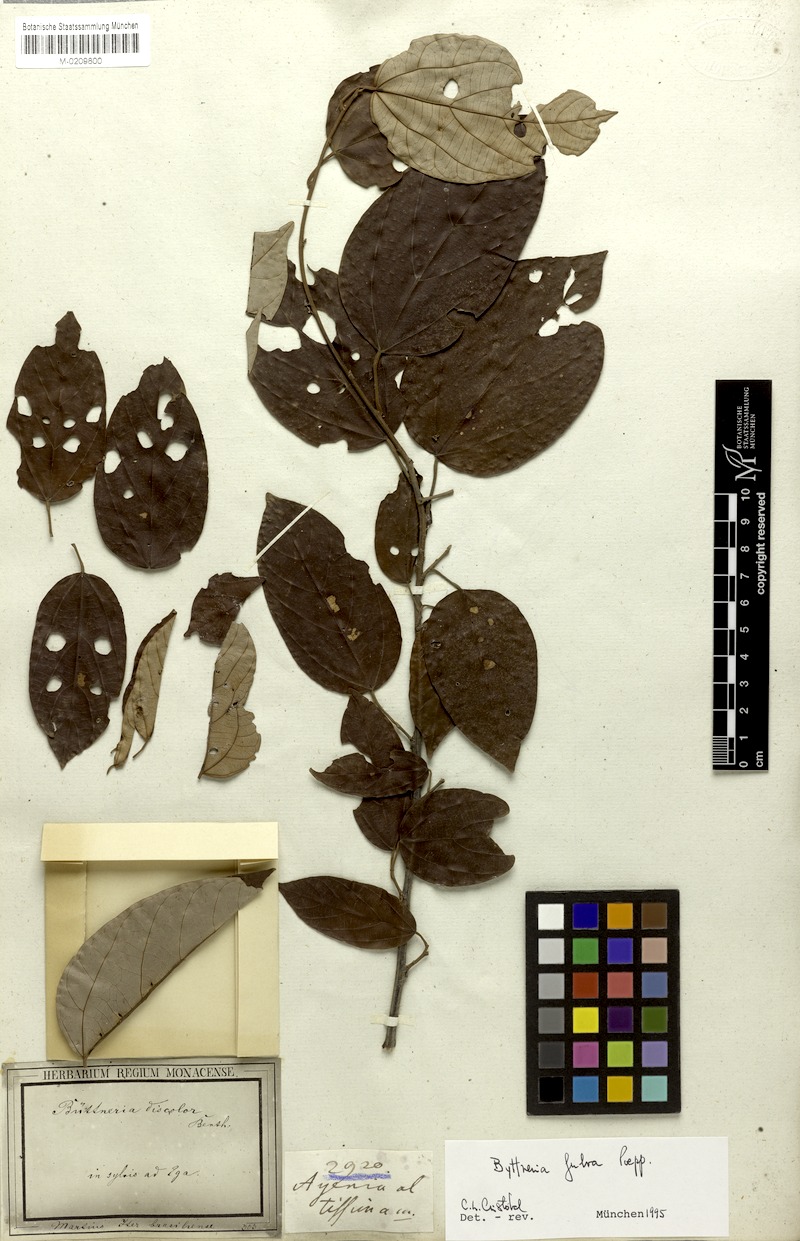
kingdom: Plantae
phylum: Tracheophyta
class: Magnoliopsida
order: Malvales
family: Malvaceae
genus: Byttneria
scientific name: Byttneria fulva
